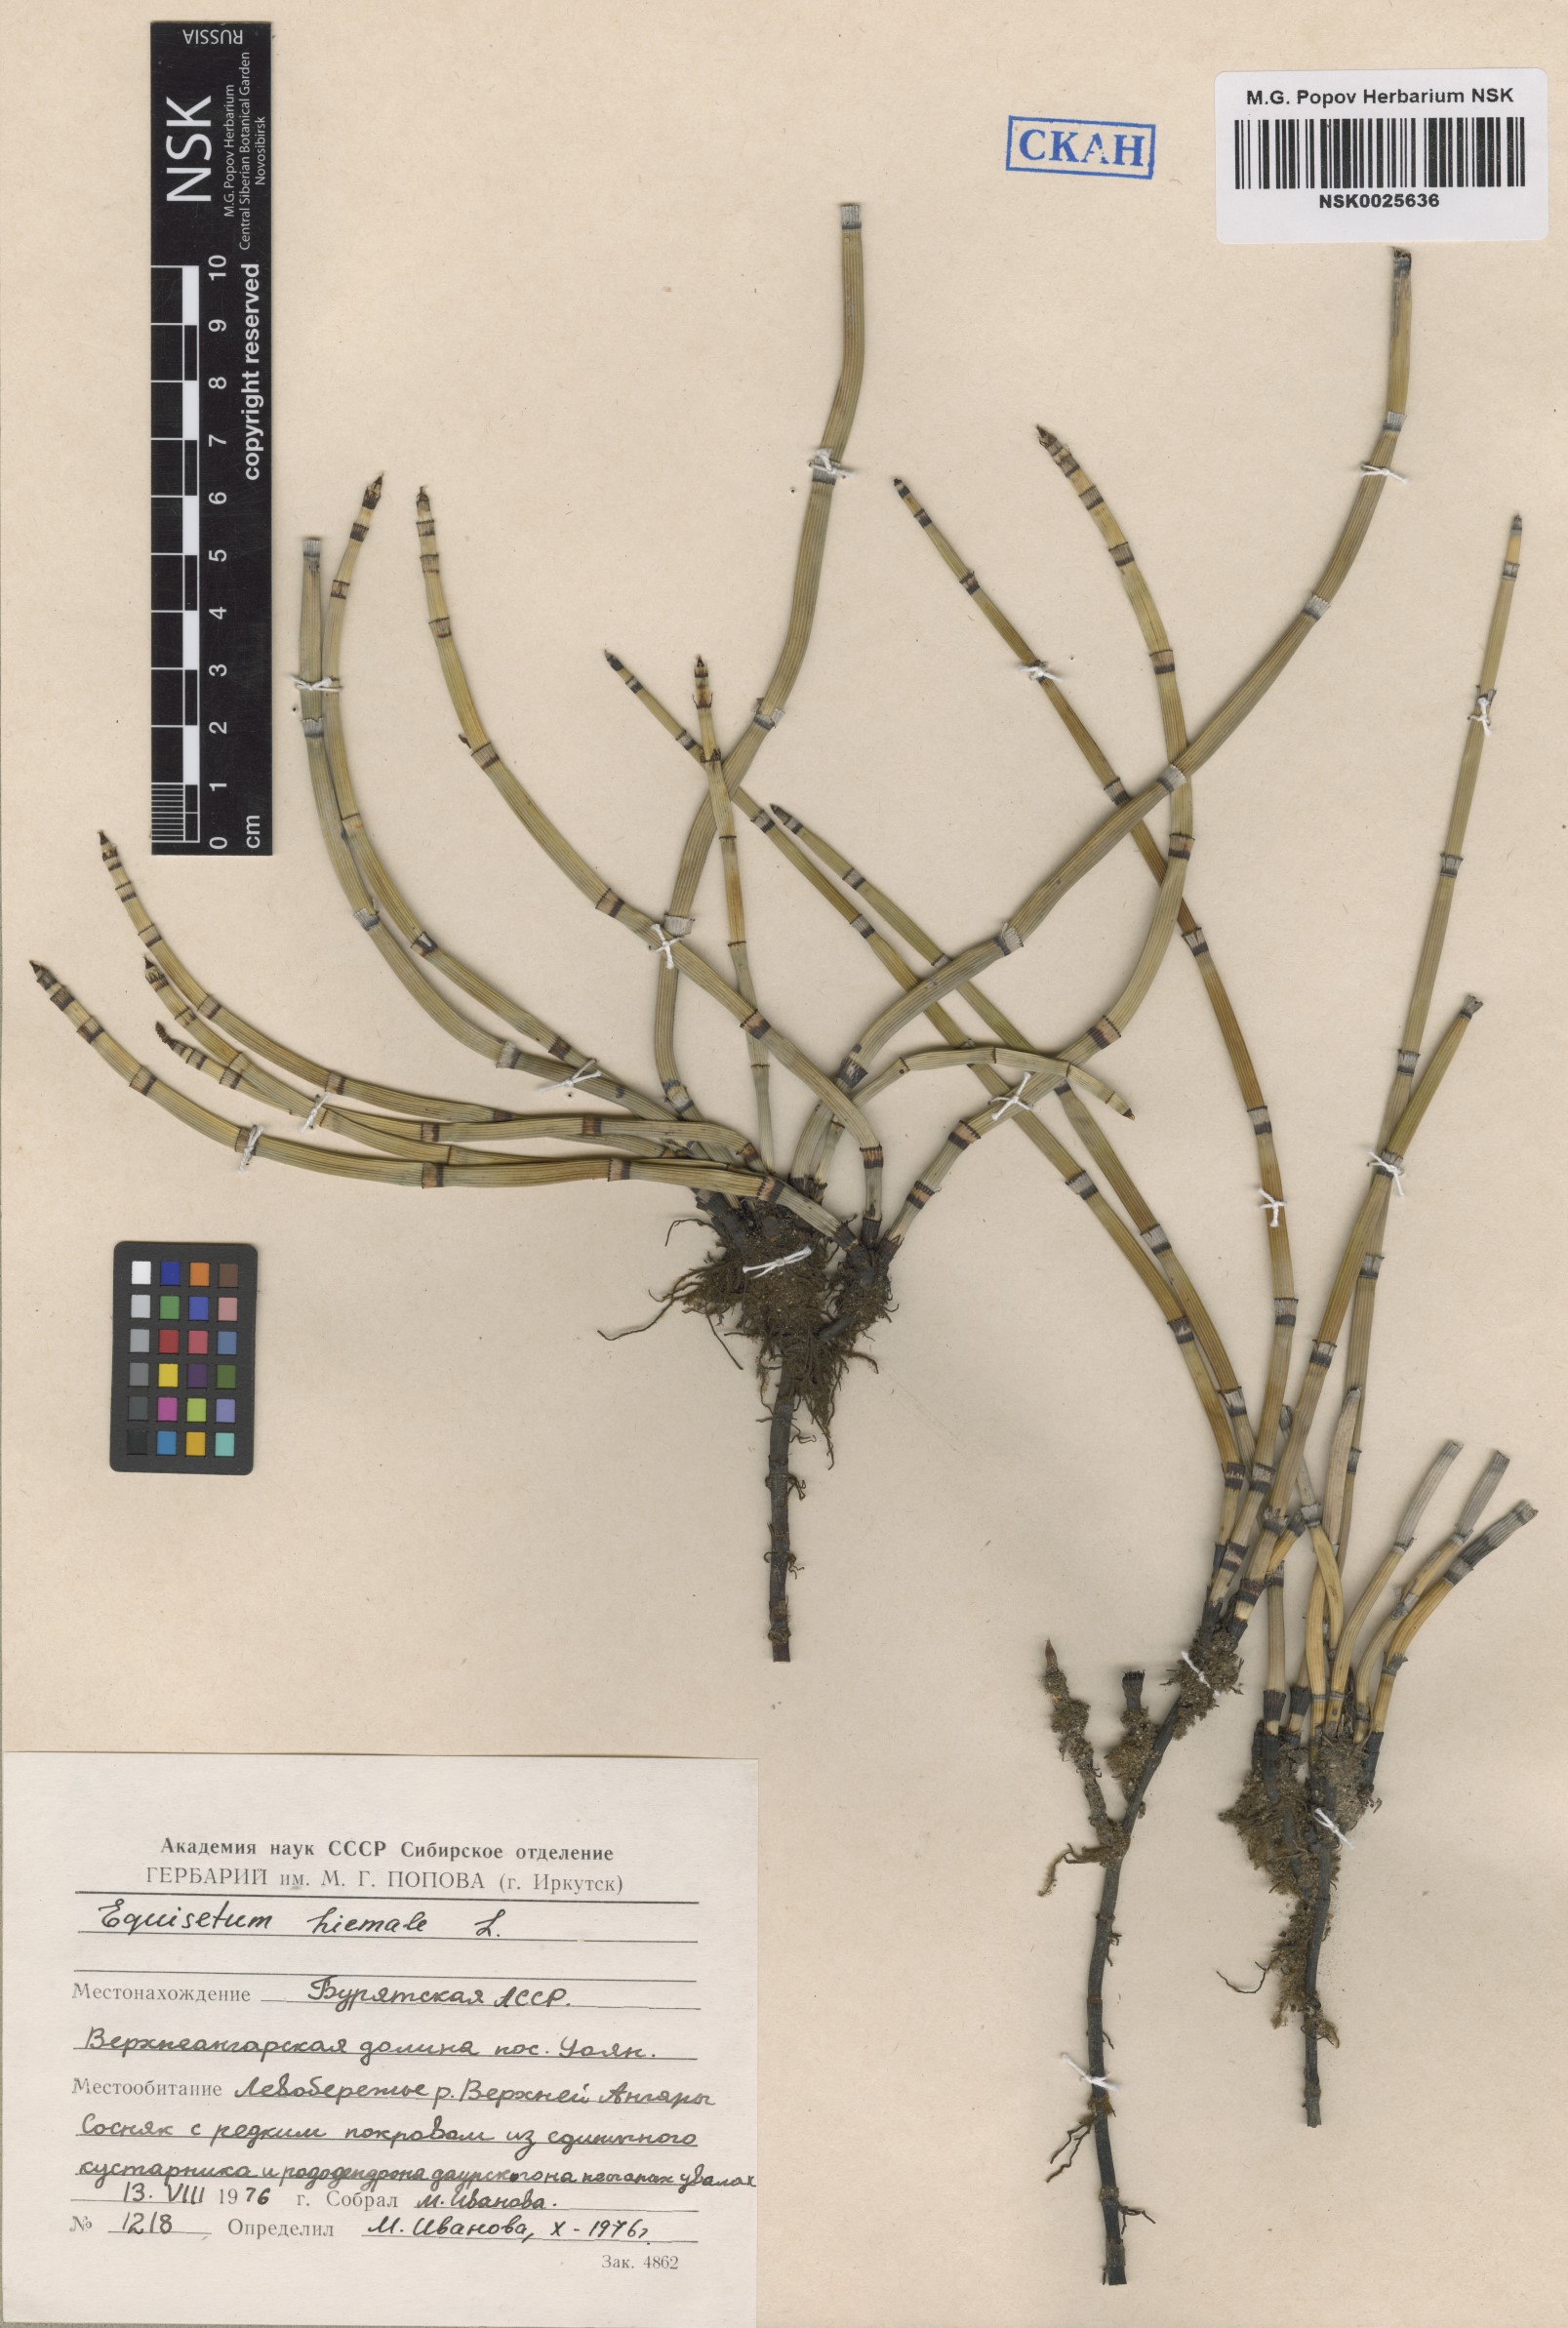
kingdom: Plantae
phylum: Tracheophyta
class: Polypodiopsida
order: Equisetales
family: Equisetaceae
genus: Equisetum
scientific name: Equisetum hyemale
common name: Rough horsetail
